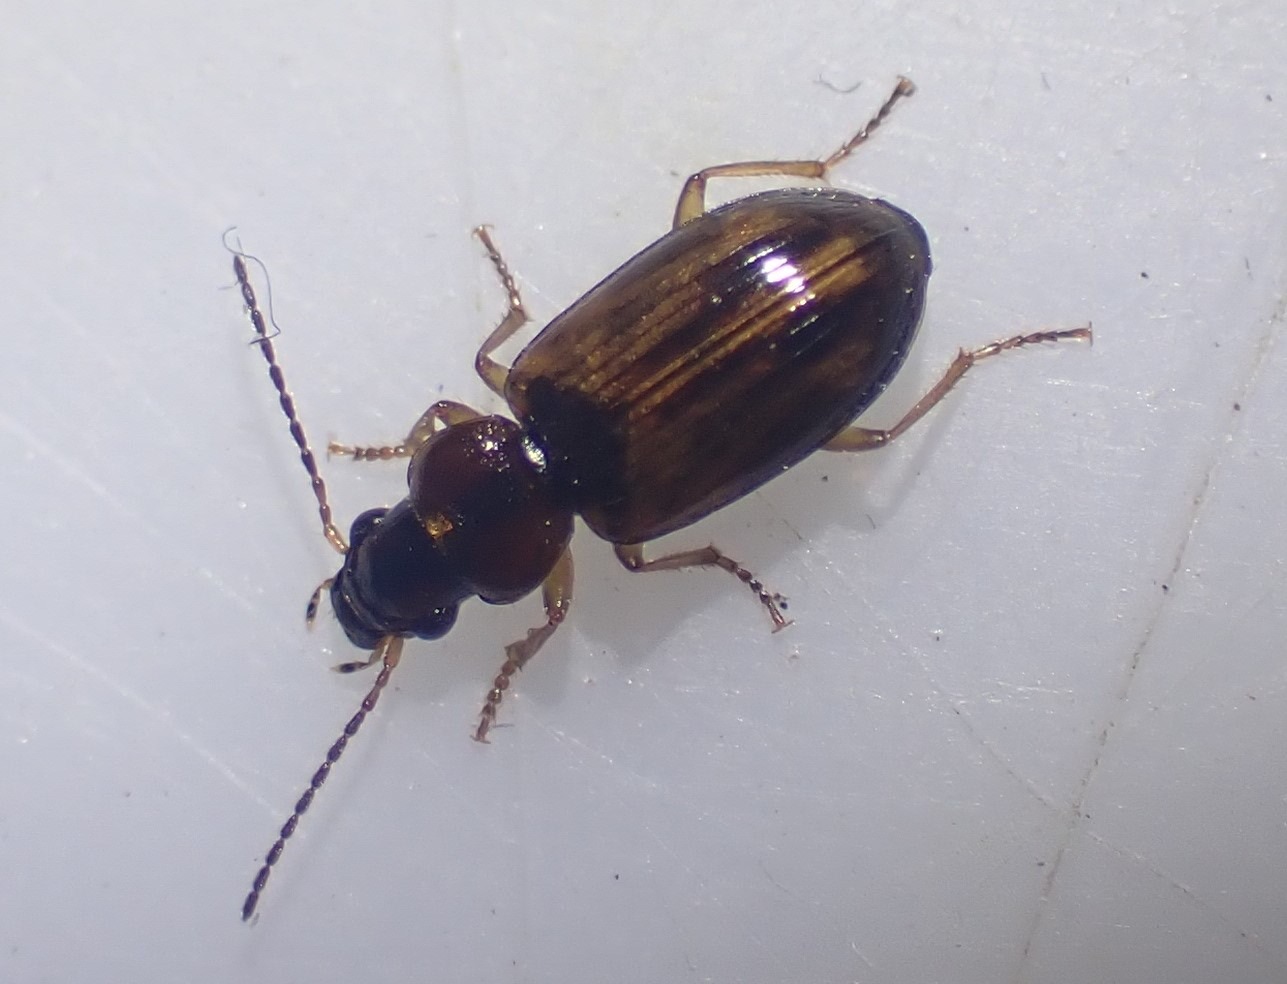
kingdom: Animalia
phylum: Arthropoda
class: Insecta
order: Coleoptera
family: Carabidae
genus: Dicheirotrichus
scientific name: Dicheirotrichus placidus
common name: Kærvinterløber
